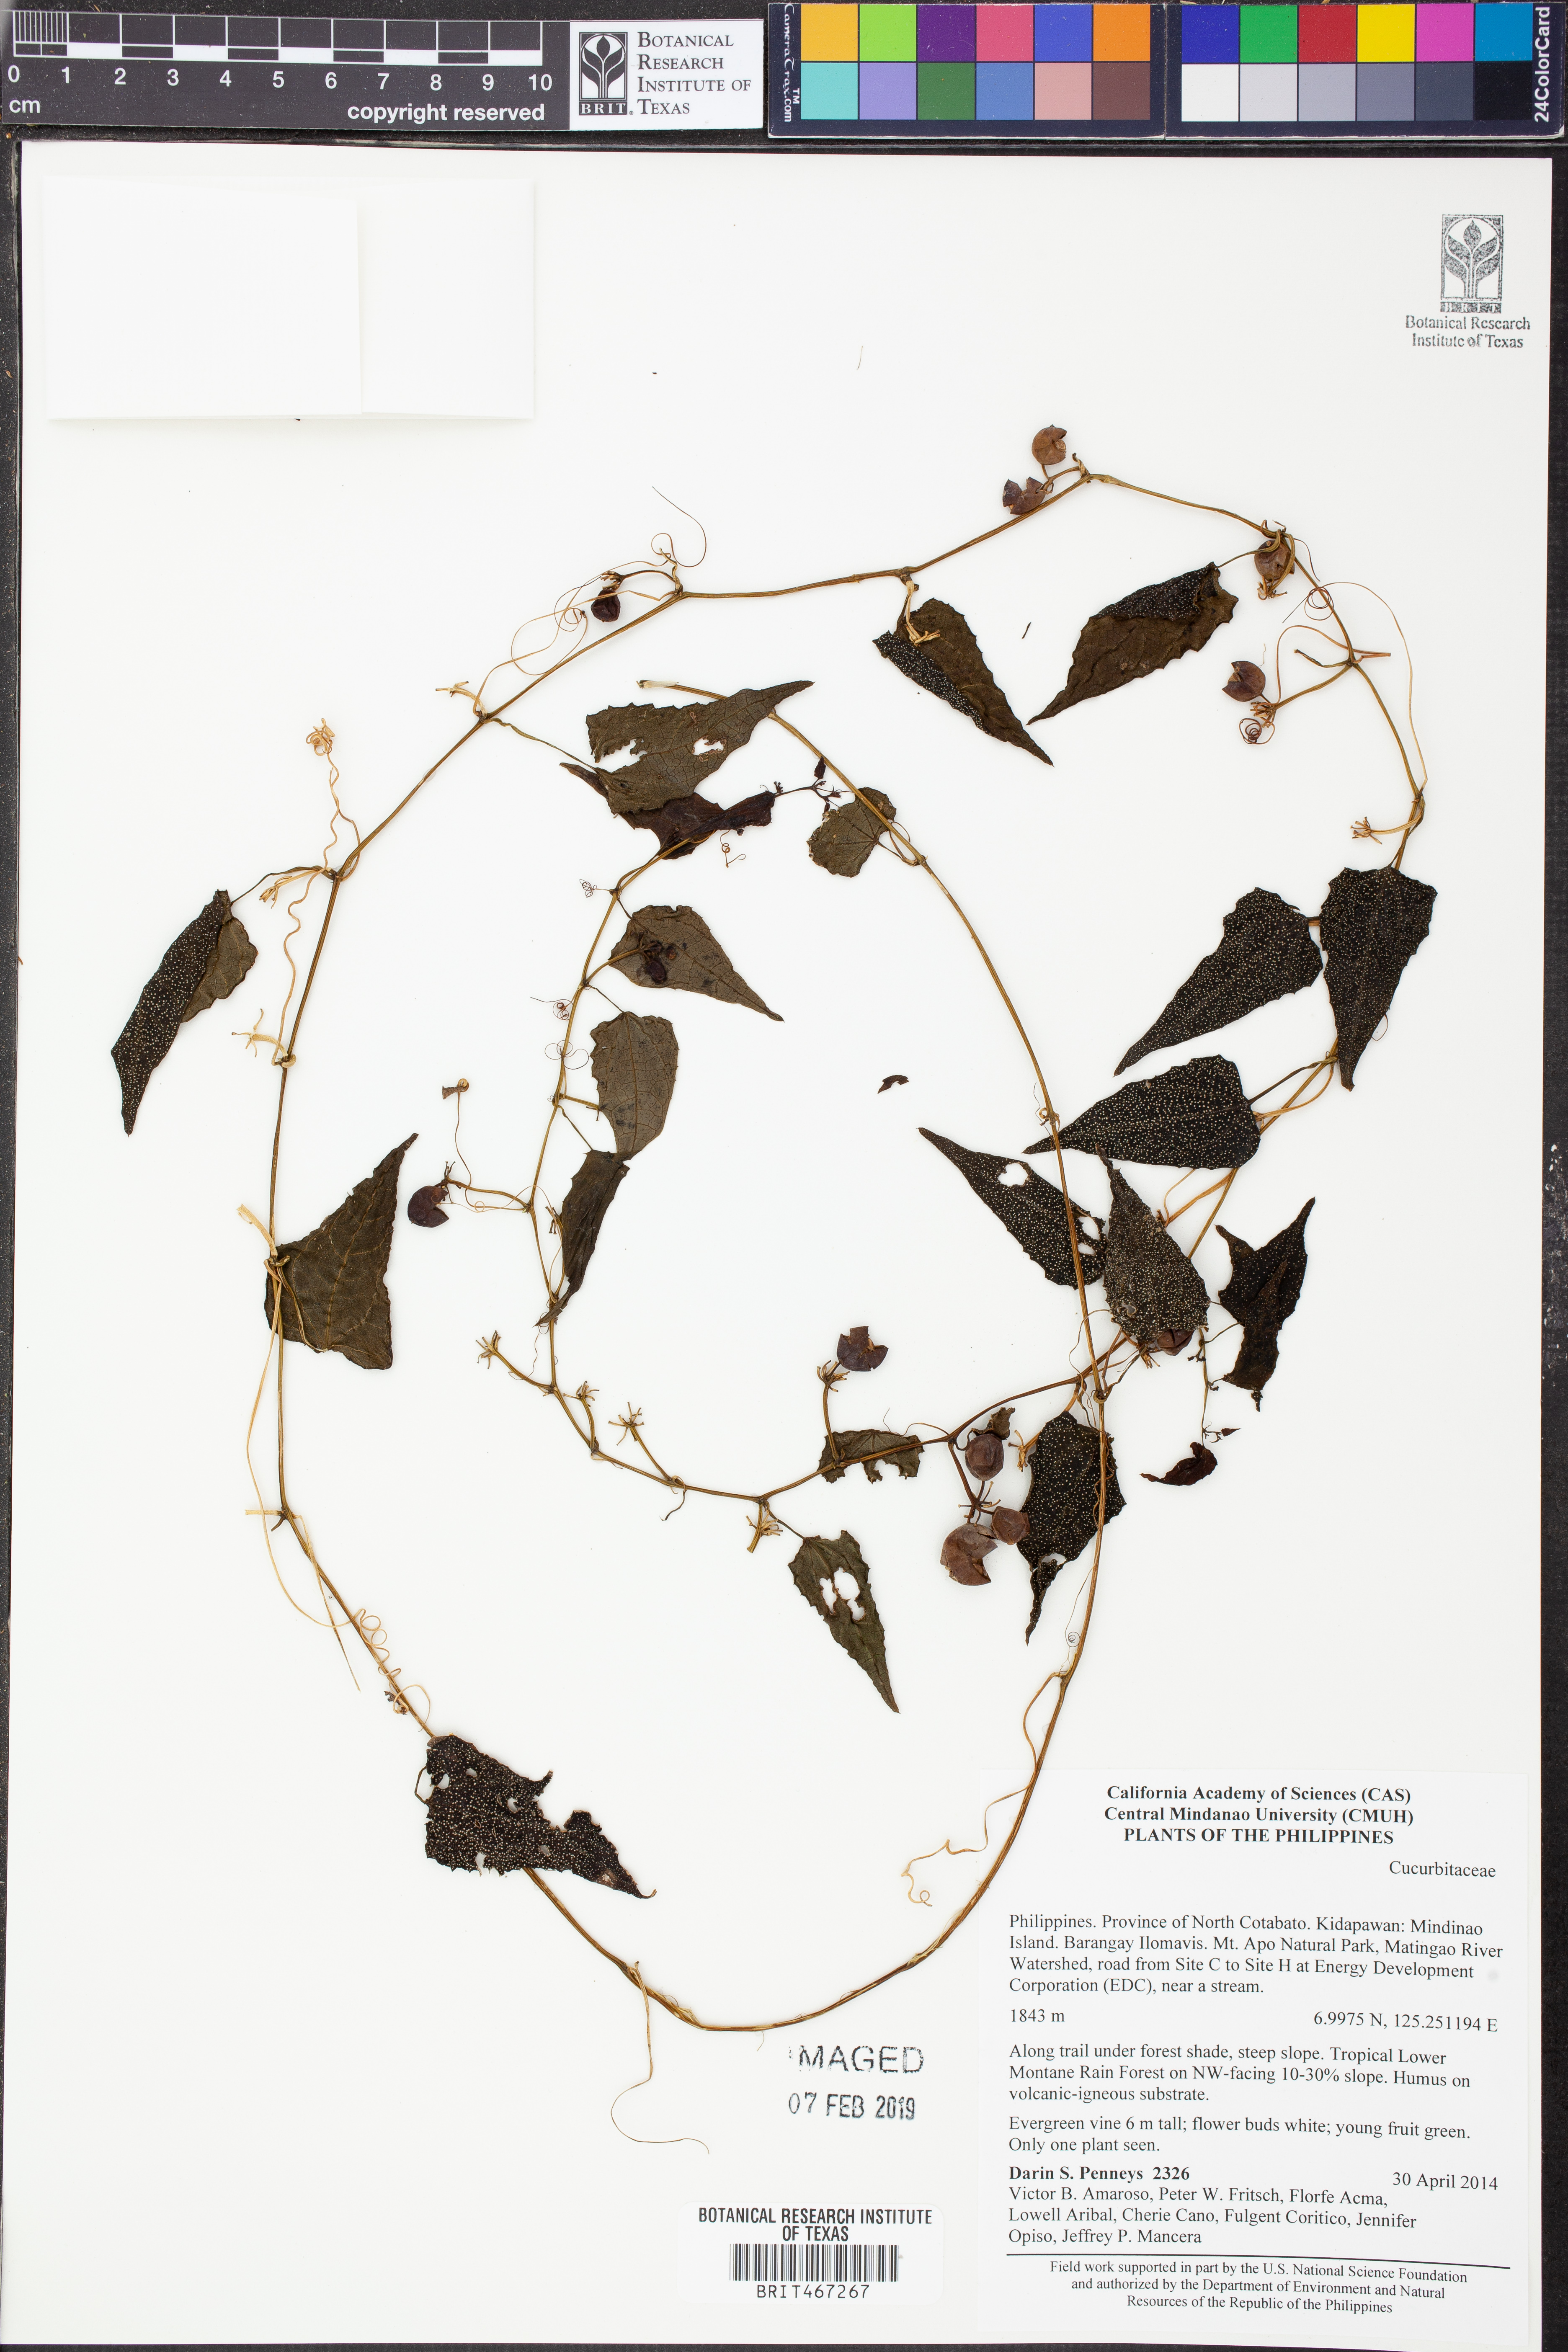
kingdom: Plantae
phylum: Tracheophyta
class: Magnoliopsida
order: Cucurbitales
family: Cucurbitaceae
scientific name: Cucurbitaceae
